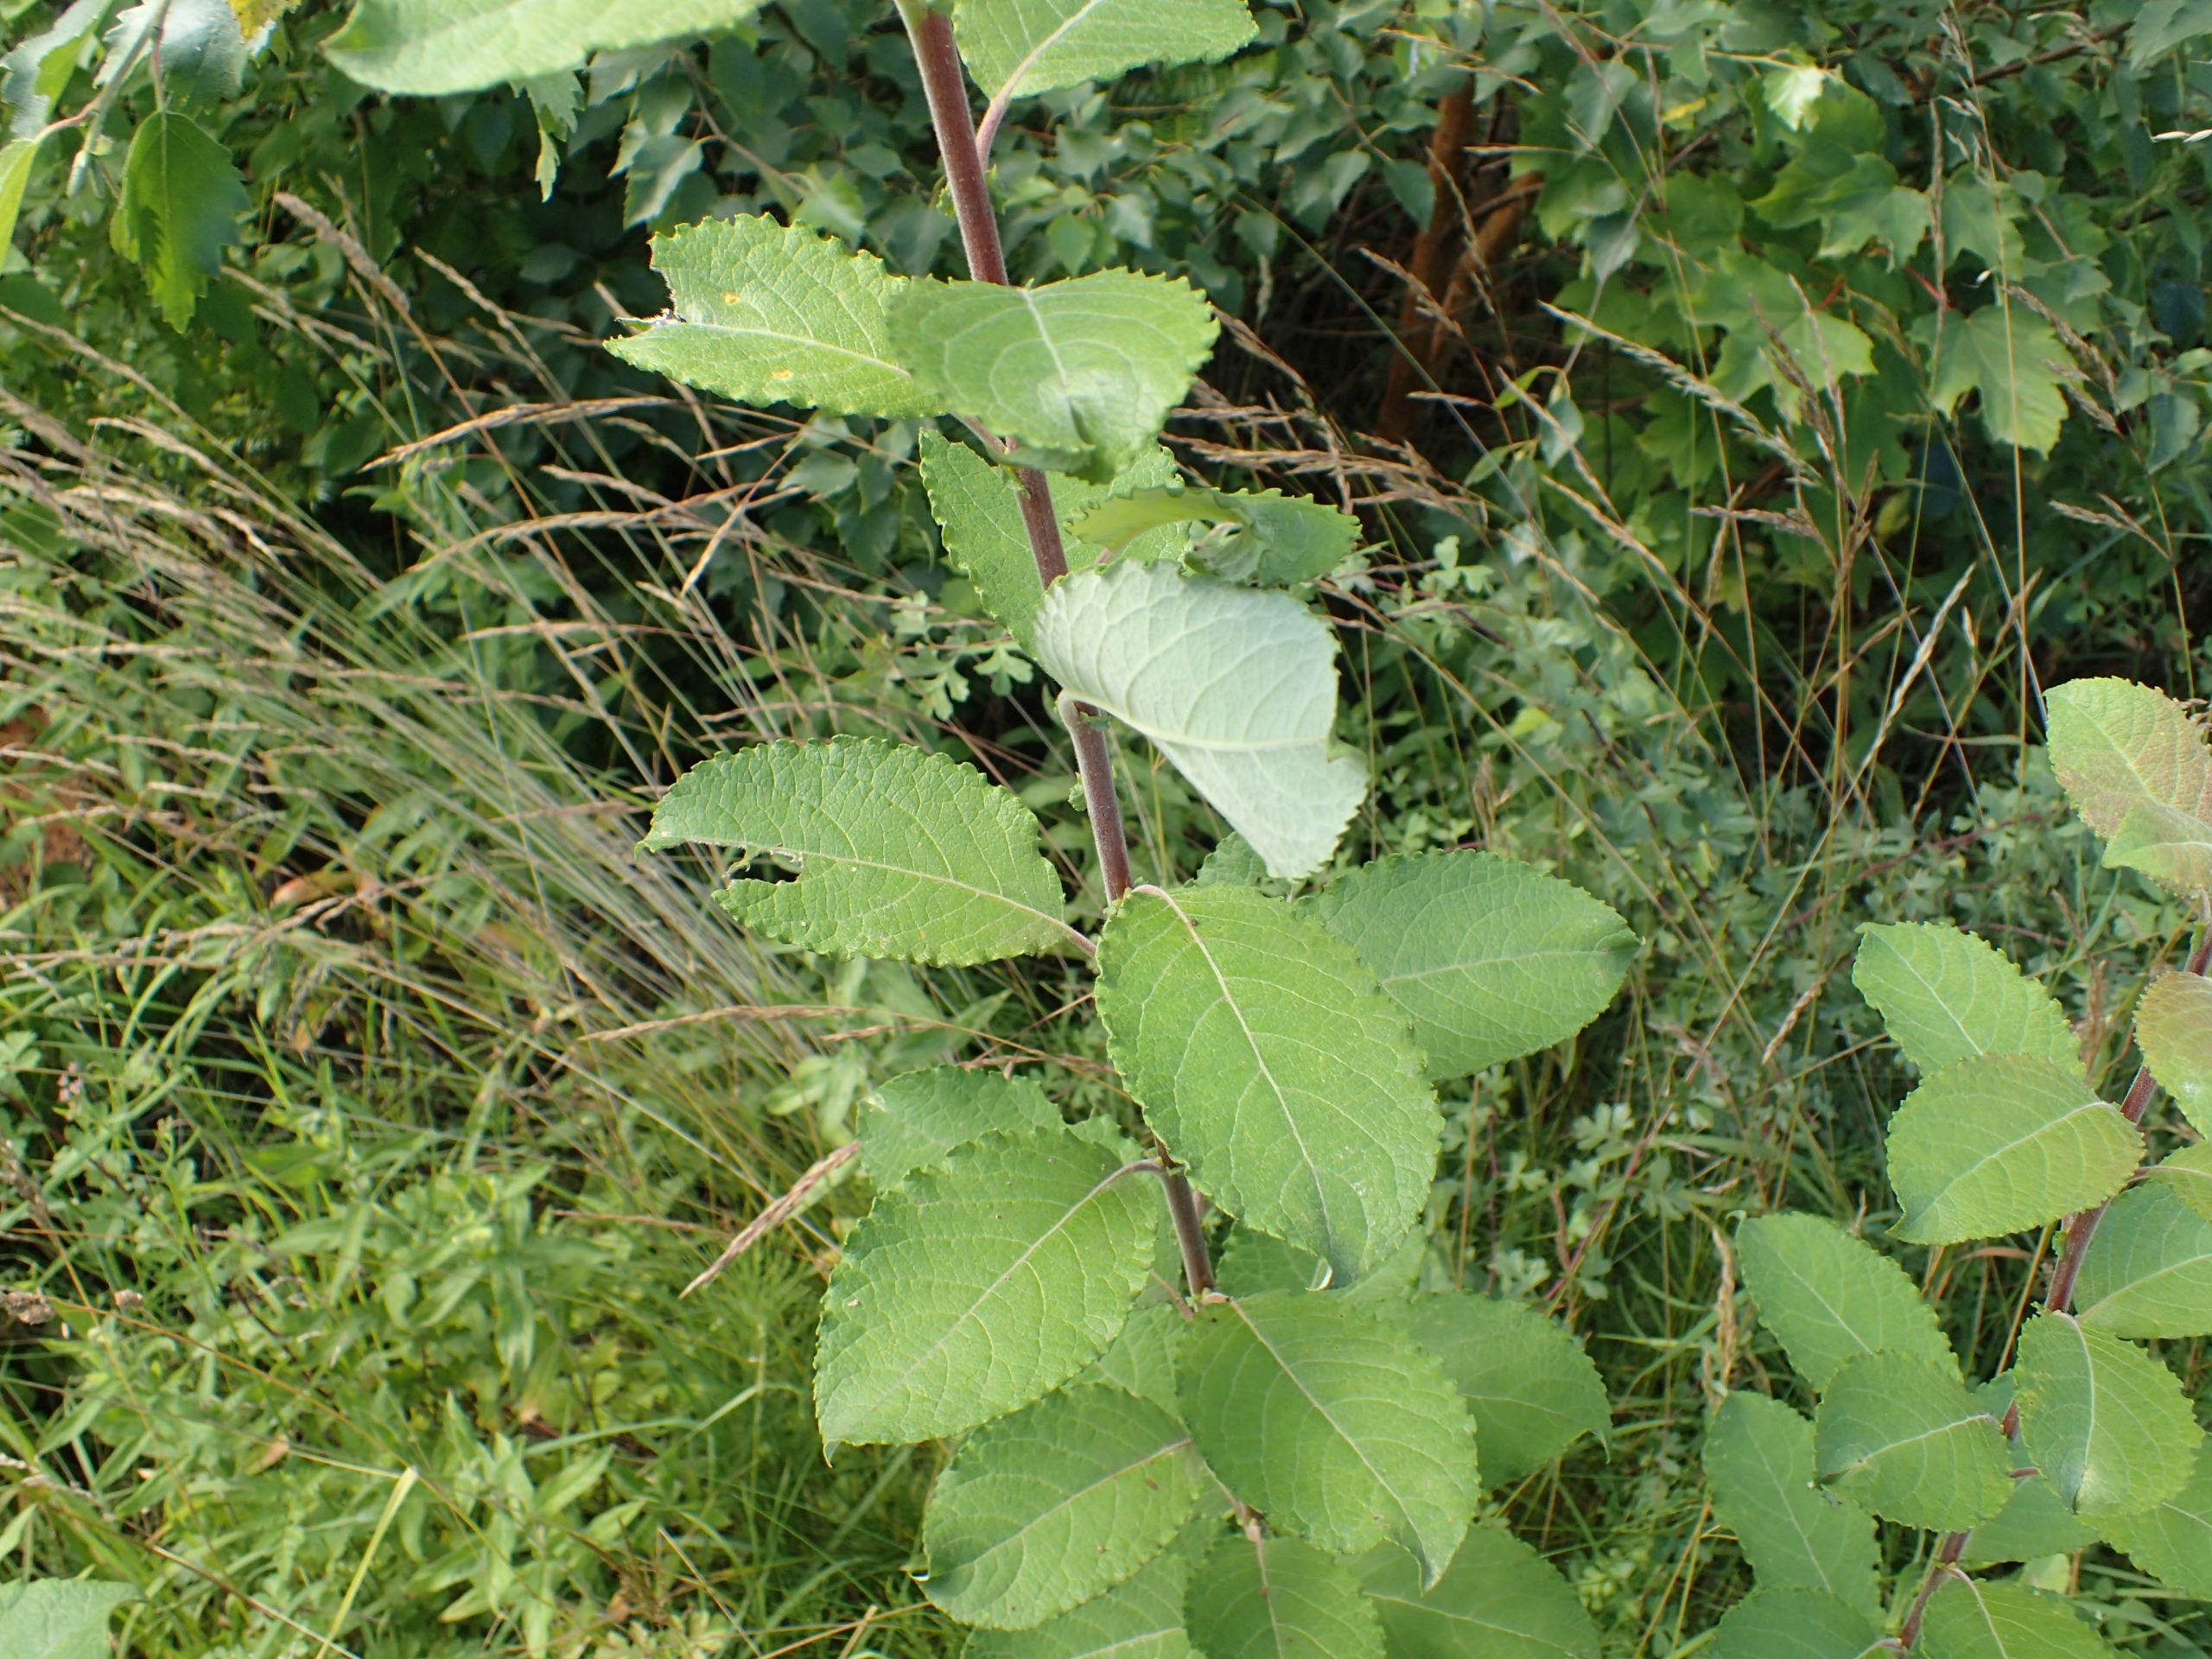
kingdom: Plantae
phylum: Tracheophyta
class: Magnoliopsida
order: Malpighiales
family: Salicaceae
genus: Salix
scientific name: Salix caprea
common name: Selje-pil
